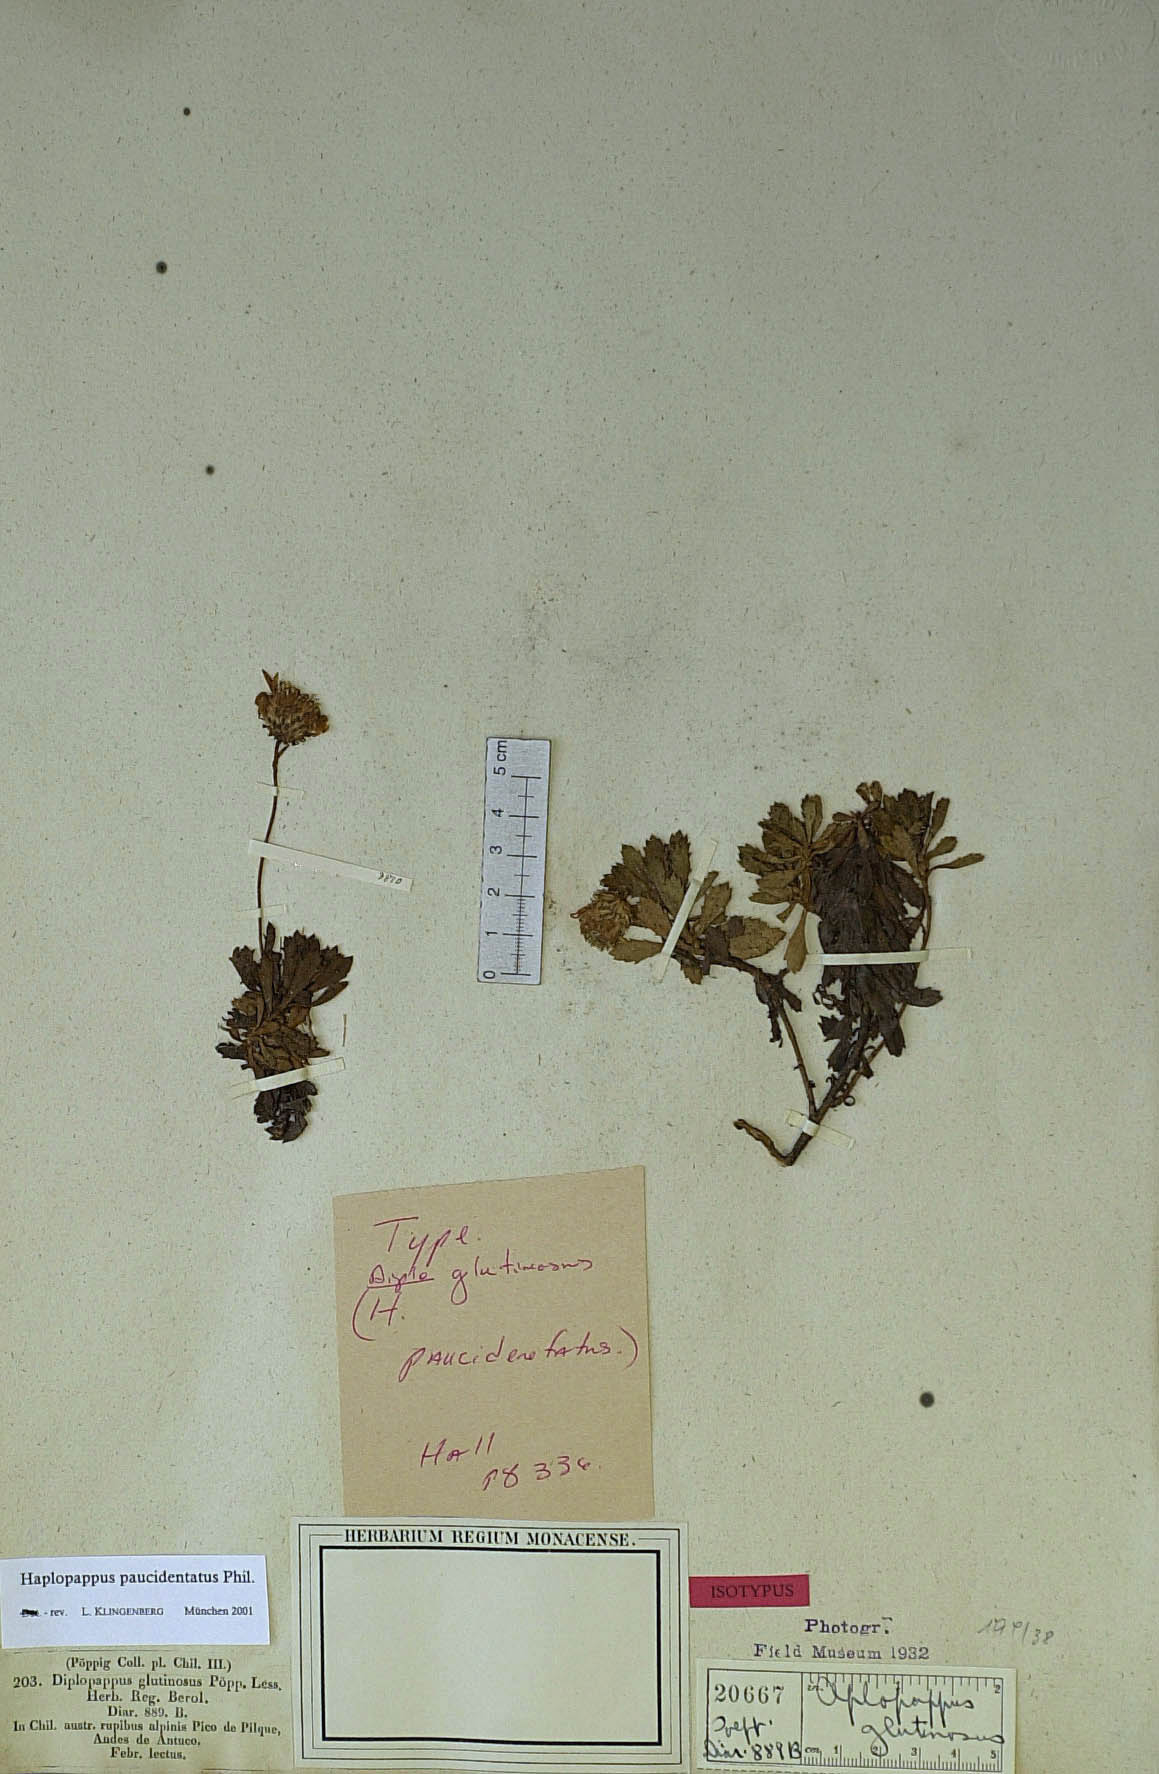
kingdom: Plantae
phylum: Tracheophyta
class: Magnoliopsida
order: Asterales
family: Asteraceae
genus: Haplopappus
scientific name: Haplopappus paucidentatus
